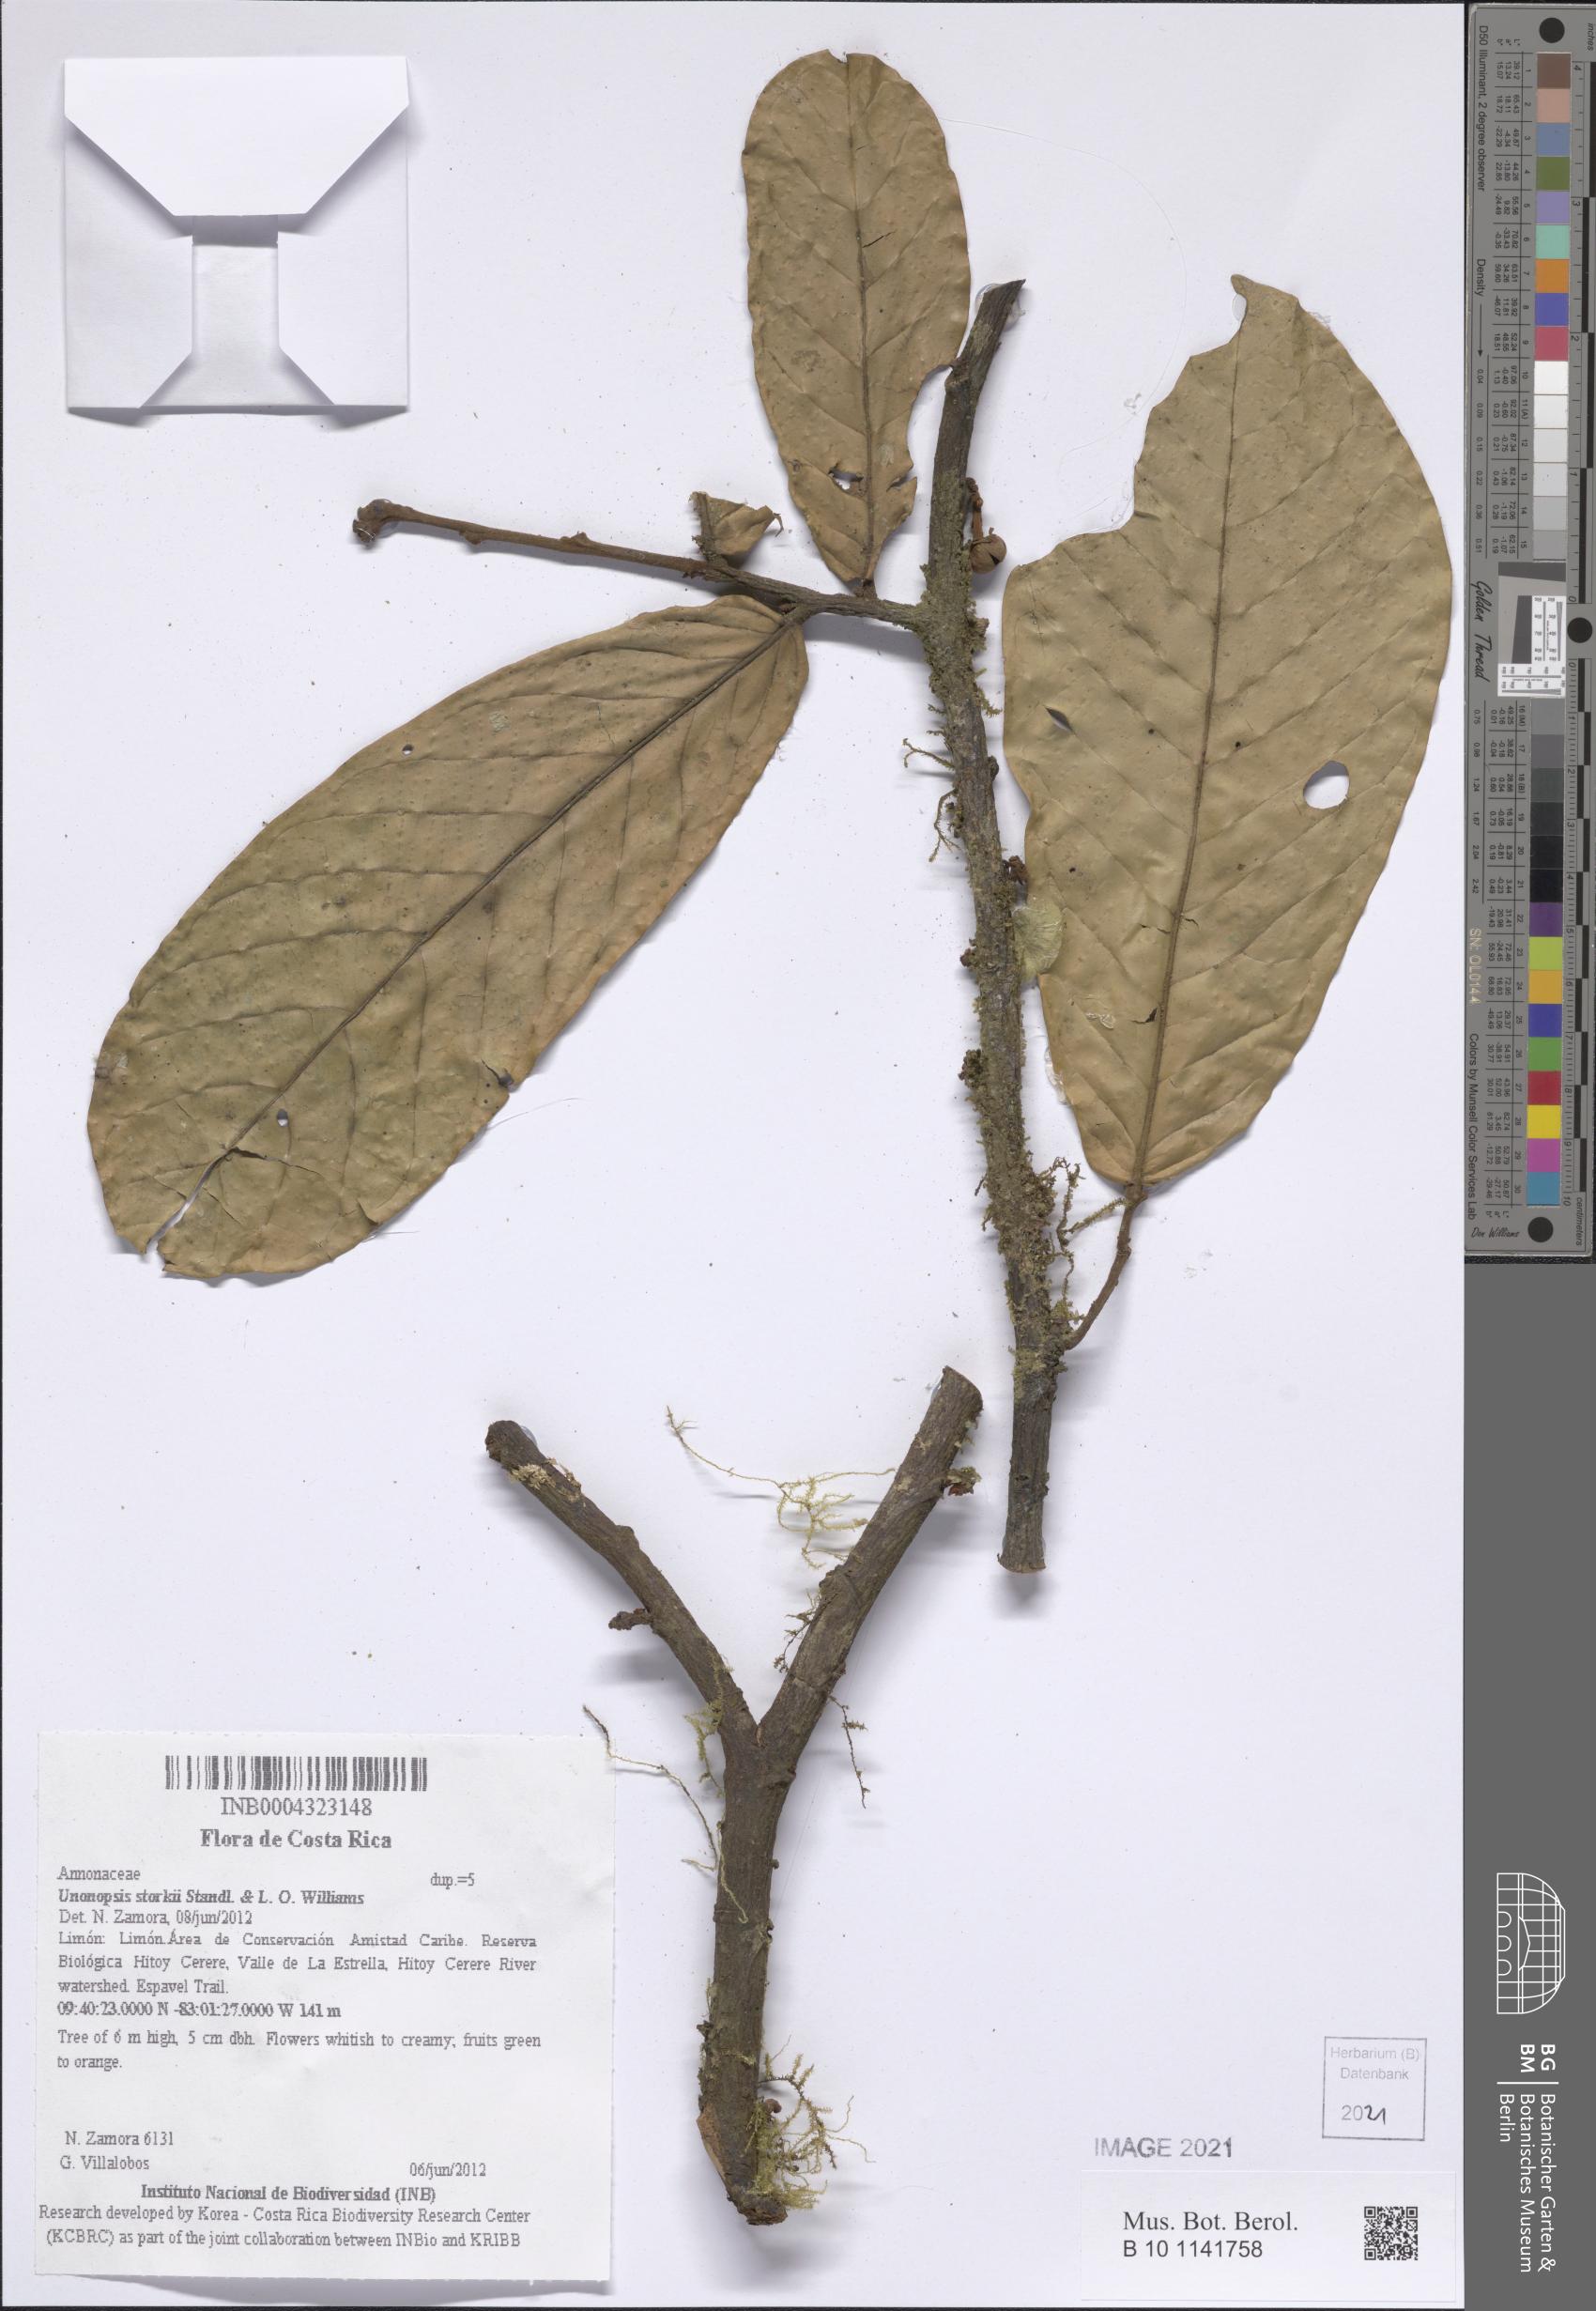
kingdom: Plantae
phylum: Tracheophyta
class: Magnoliopsida
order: Magnoliales
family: Annonaceae
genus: Unonopsis
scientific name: Unonopsis storkii
